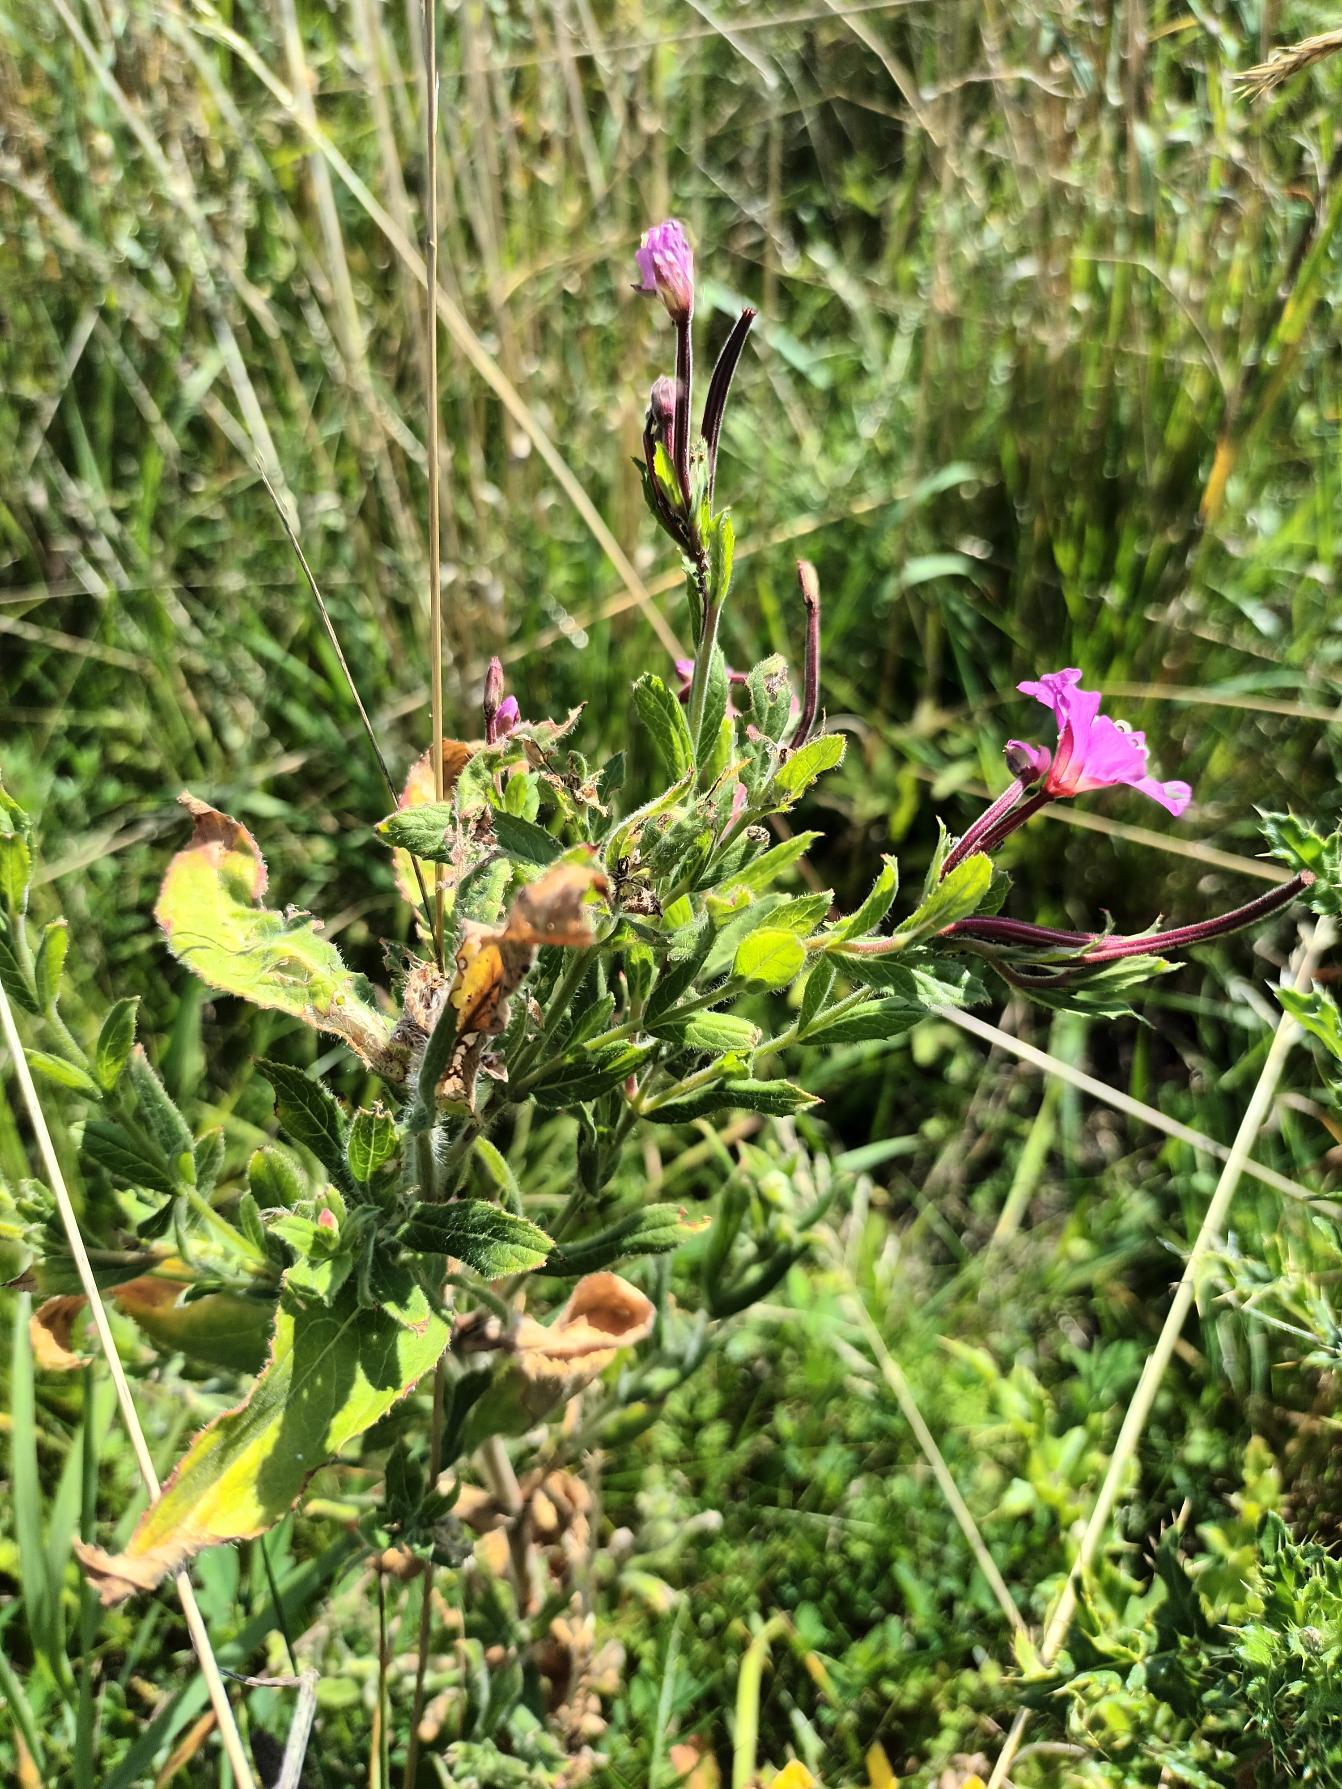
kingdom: Plantae
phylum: Tracheophyta
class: Magnoliopsida
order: Myrtales
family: Onagraceae
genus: Epilobium
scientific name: Epilobium hirsutum
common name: Lådden dueurt
